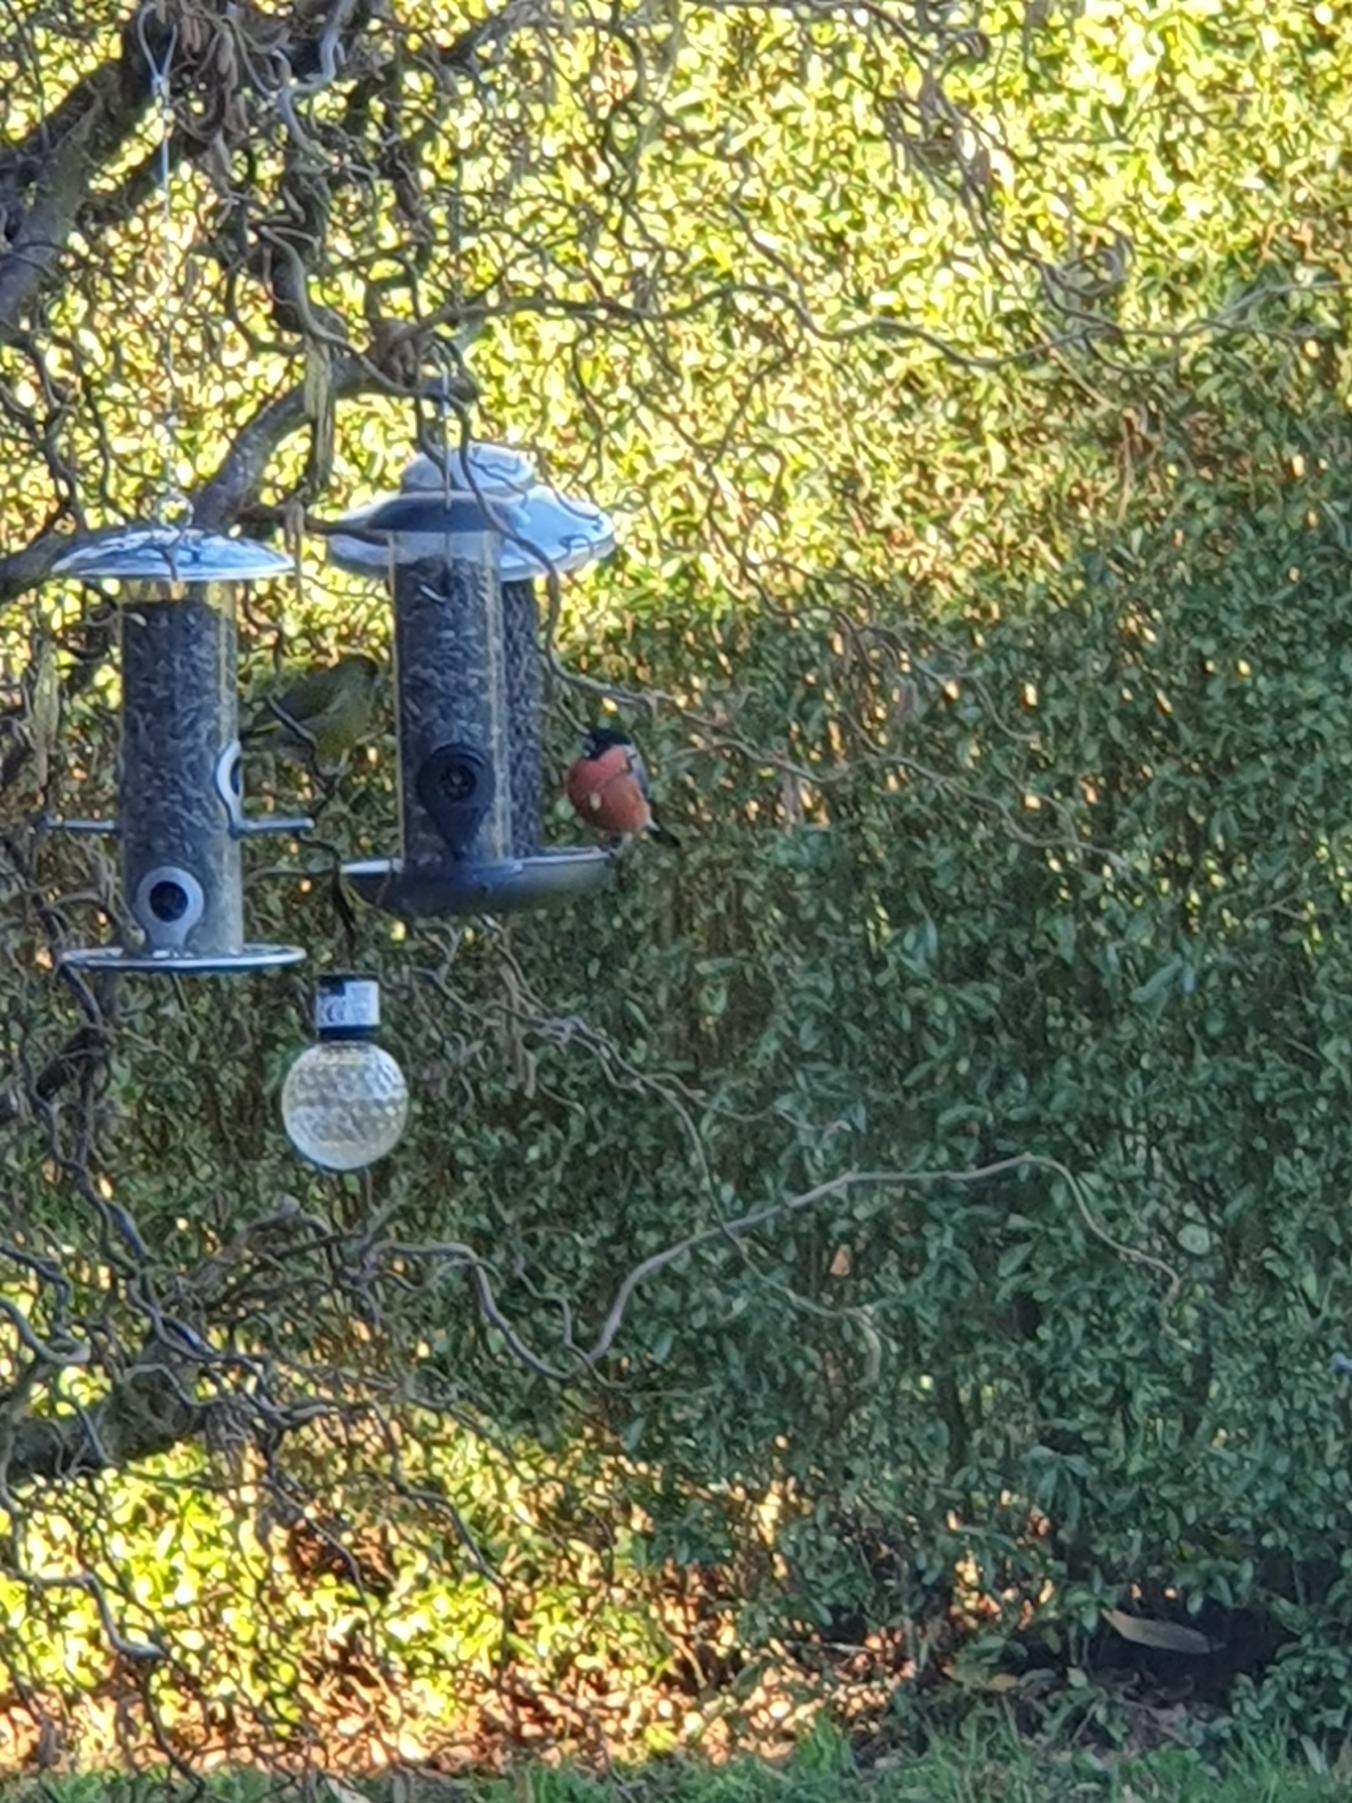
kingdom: Animalia
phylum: Chordata
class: Aves
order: Passeriformes
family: Fringillidae
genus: Pyrrhula
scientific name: Pyrrhula pyrrhula
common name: Dompap
